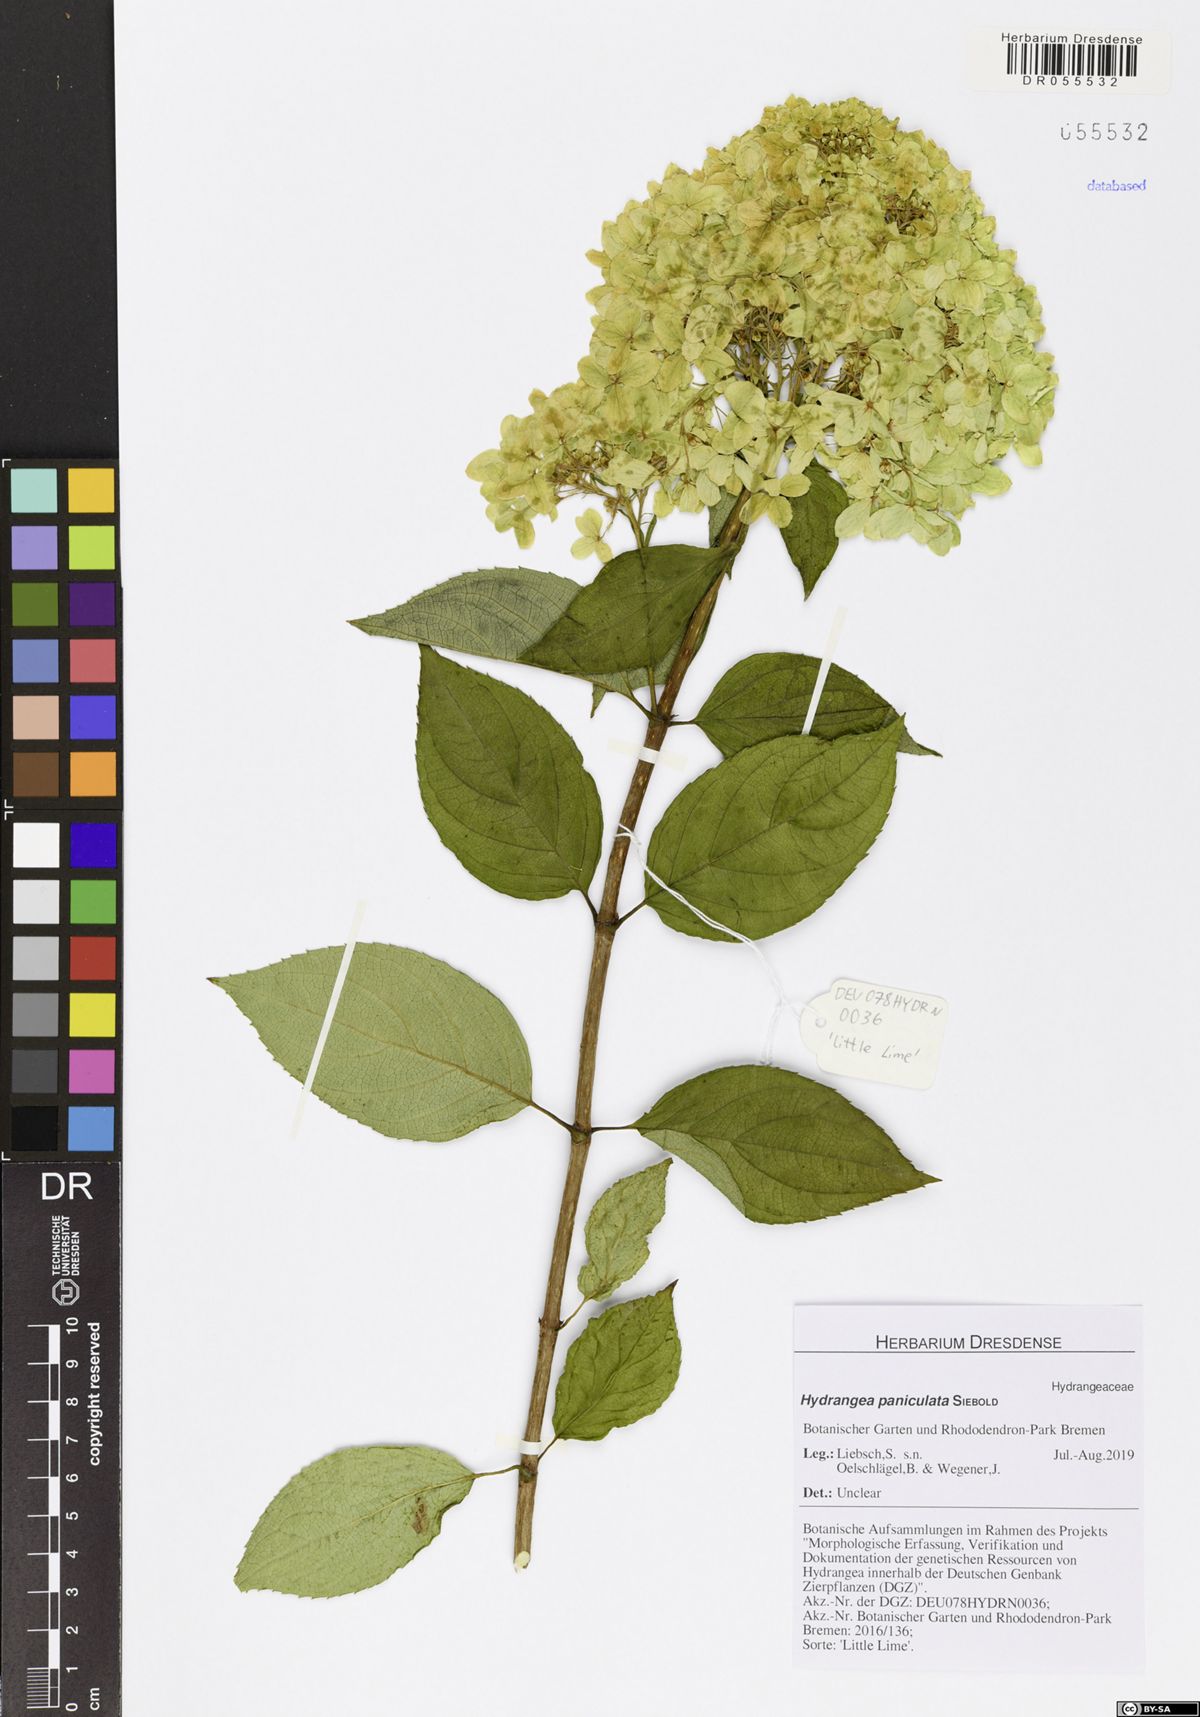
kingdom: Plantae
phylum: Tracheophyta
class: Magnoliopsida
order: Cornales
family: Hydrangeaceae
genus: Hydrangea
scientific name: Hydrangea paniculata
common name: Panicled hydrangea
